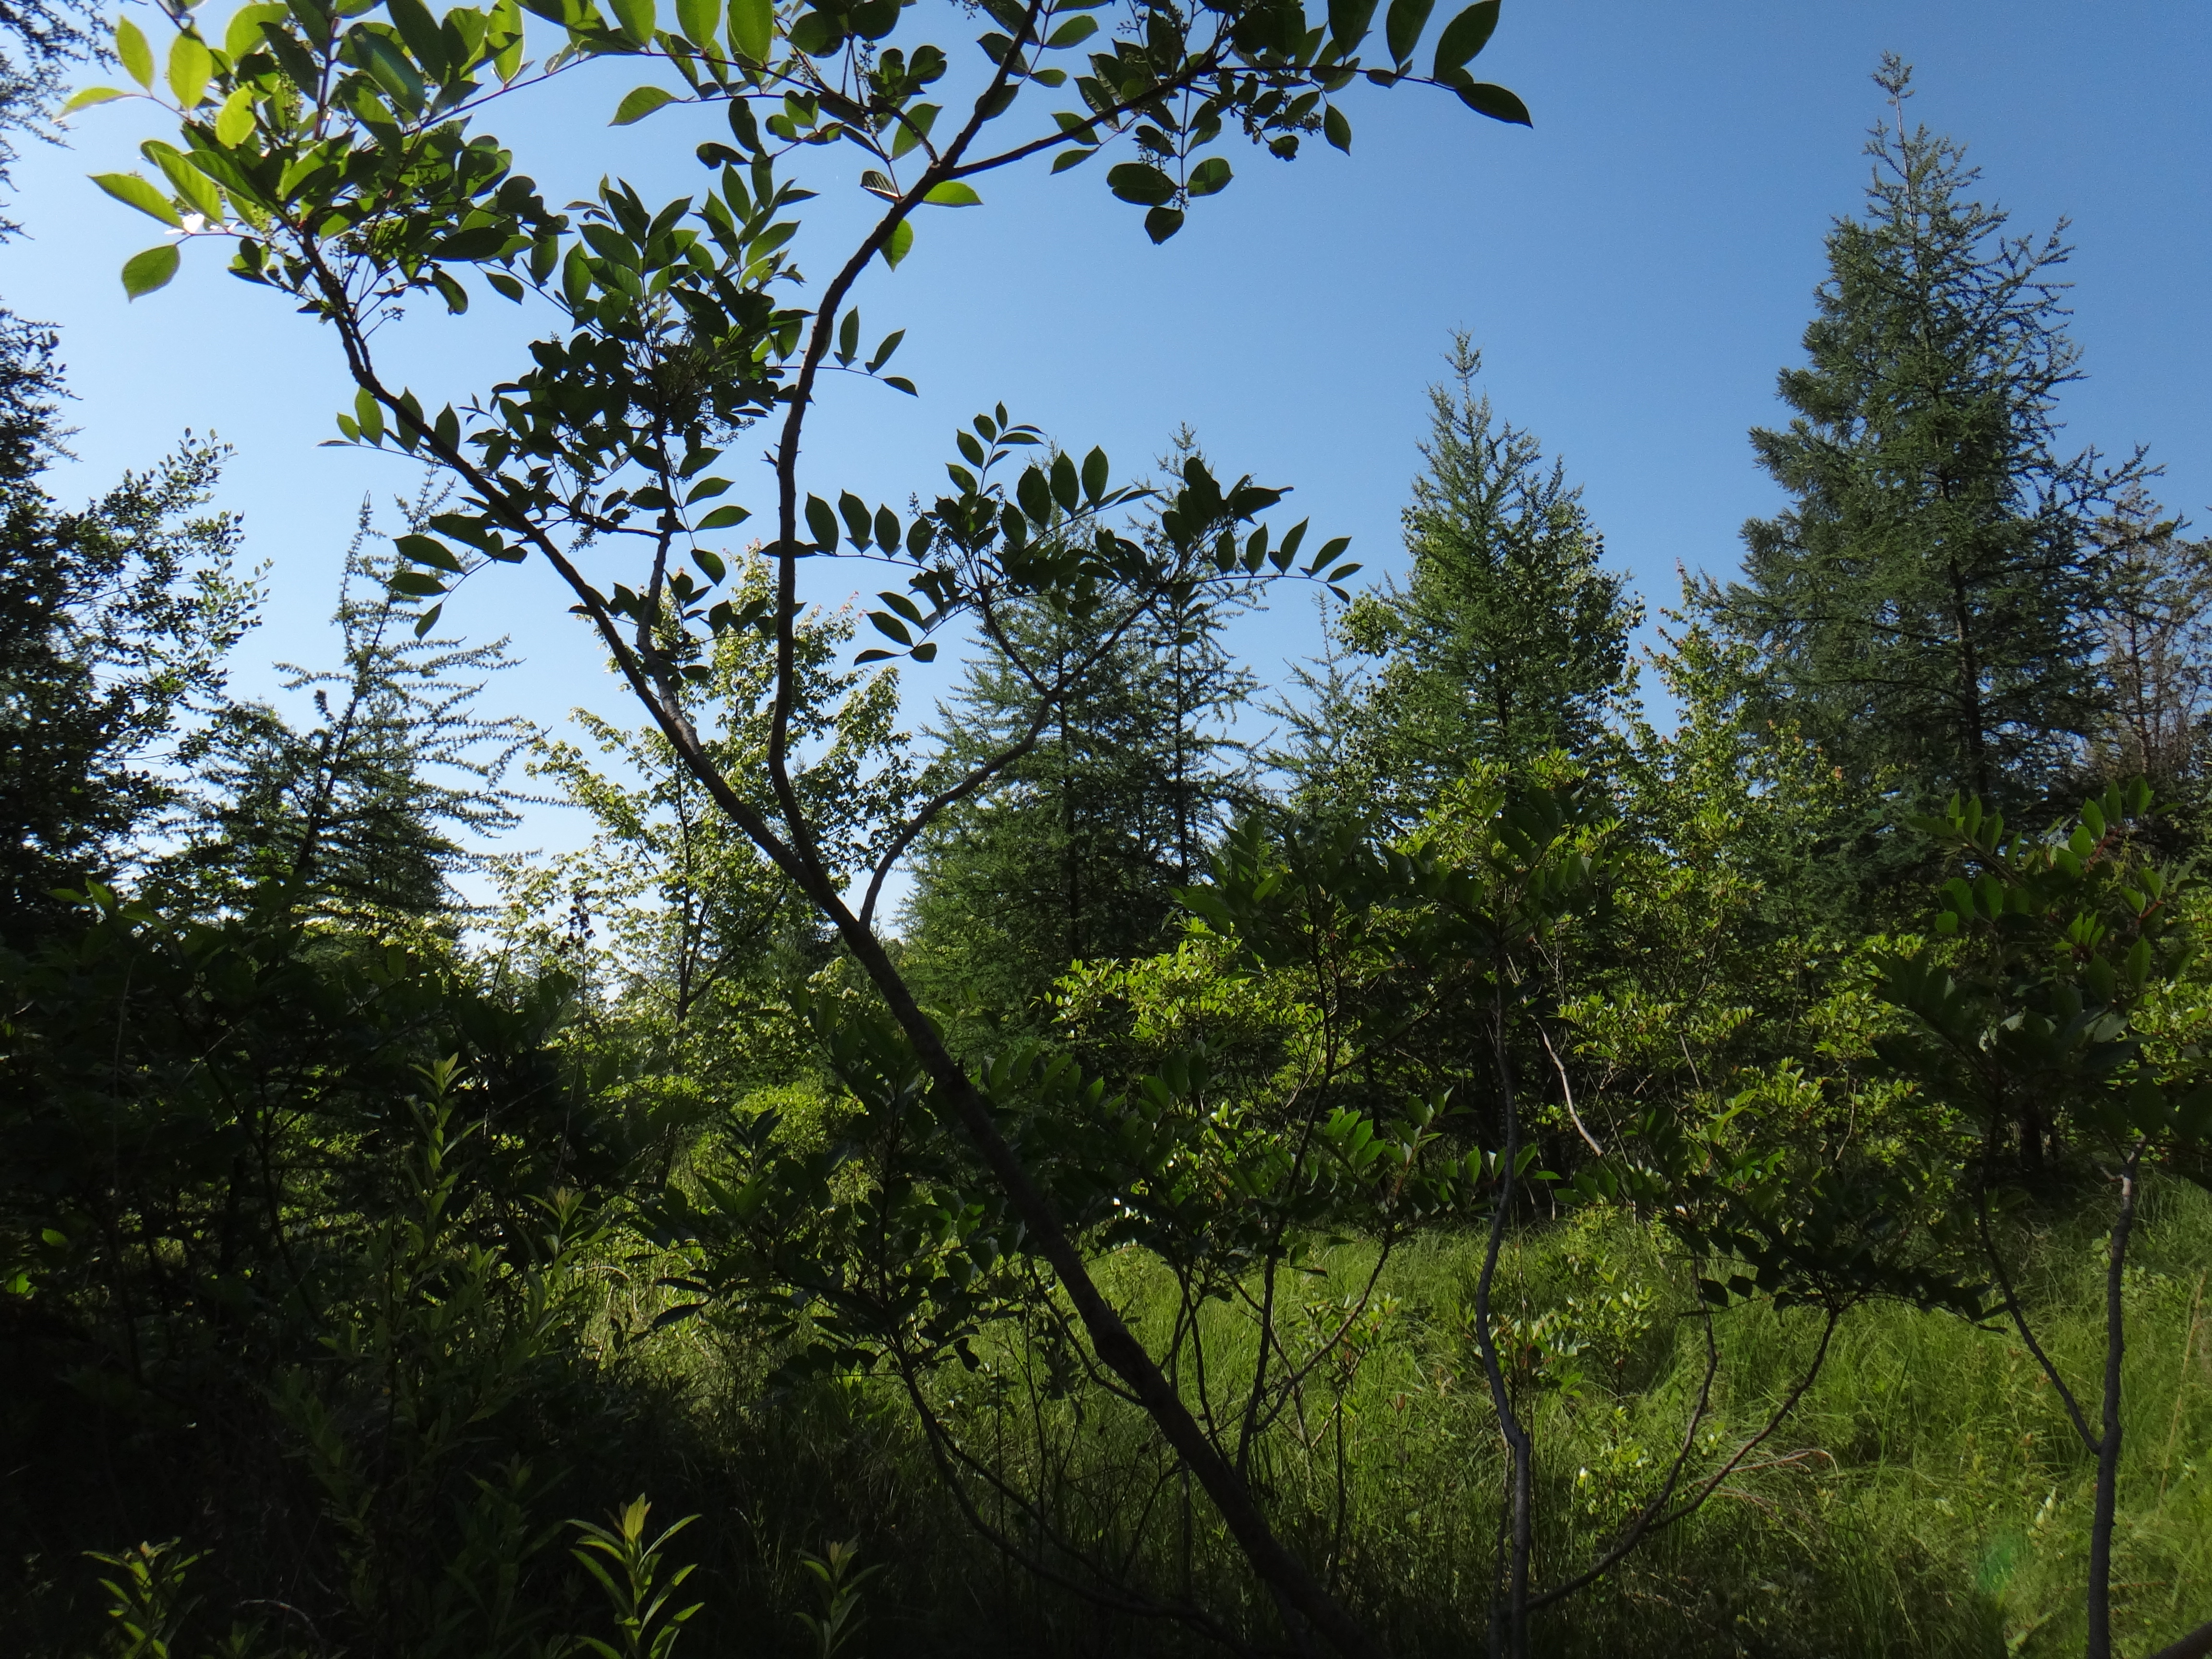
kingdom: Plantae
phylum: Tracheophyta
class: Liliopsida
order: Poales
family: Poaceae
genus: Bromus
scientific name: Bromus ciliatus
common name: Fringe brome
